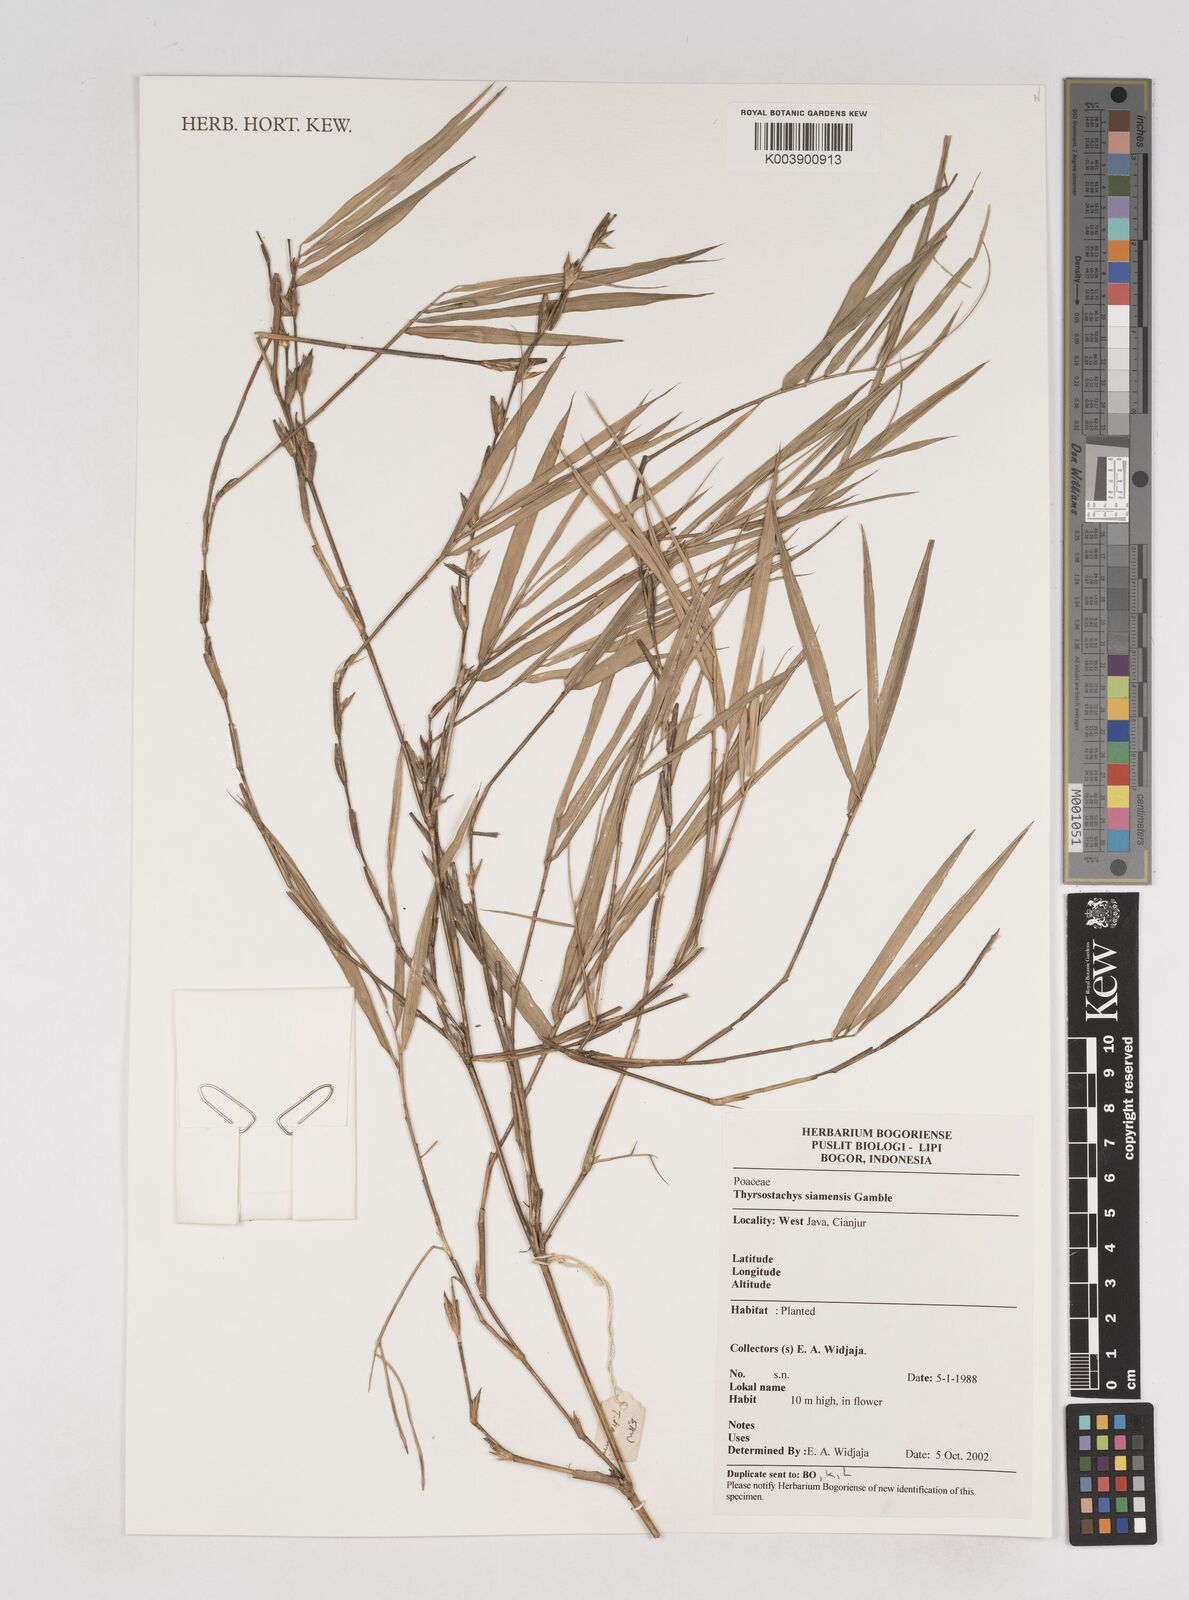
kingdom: Plantae
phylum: Tracheophyta
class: Liliopsida
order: Poales
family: Poaceae
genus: Thyrsostachys
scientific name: Thyrsostachys siamensis
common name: Thailand bamboo
